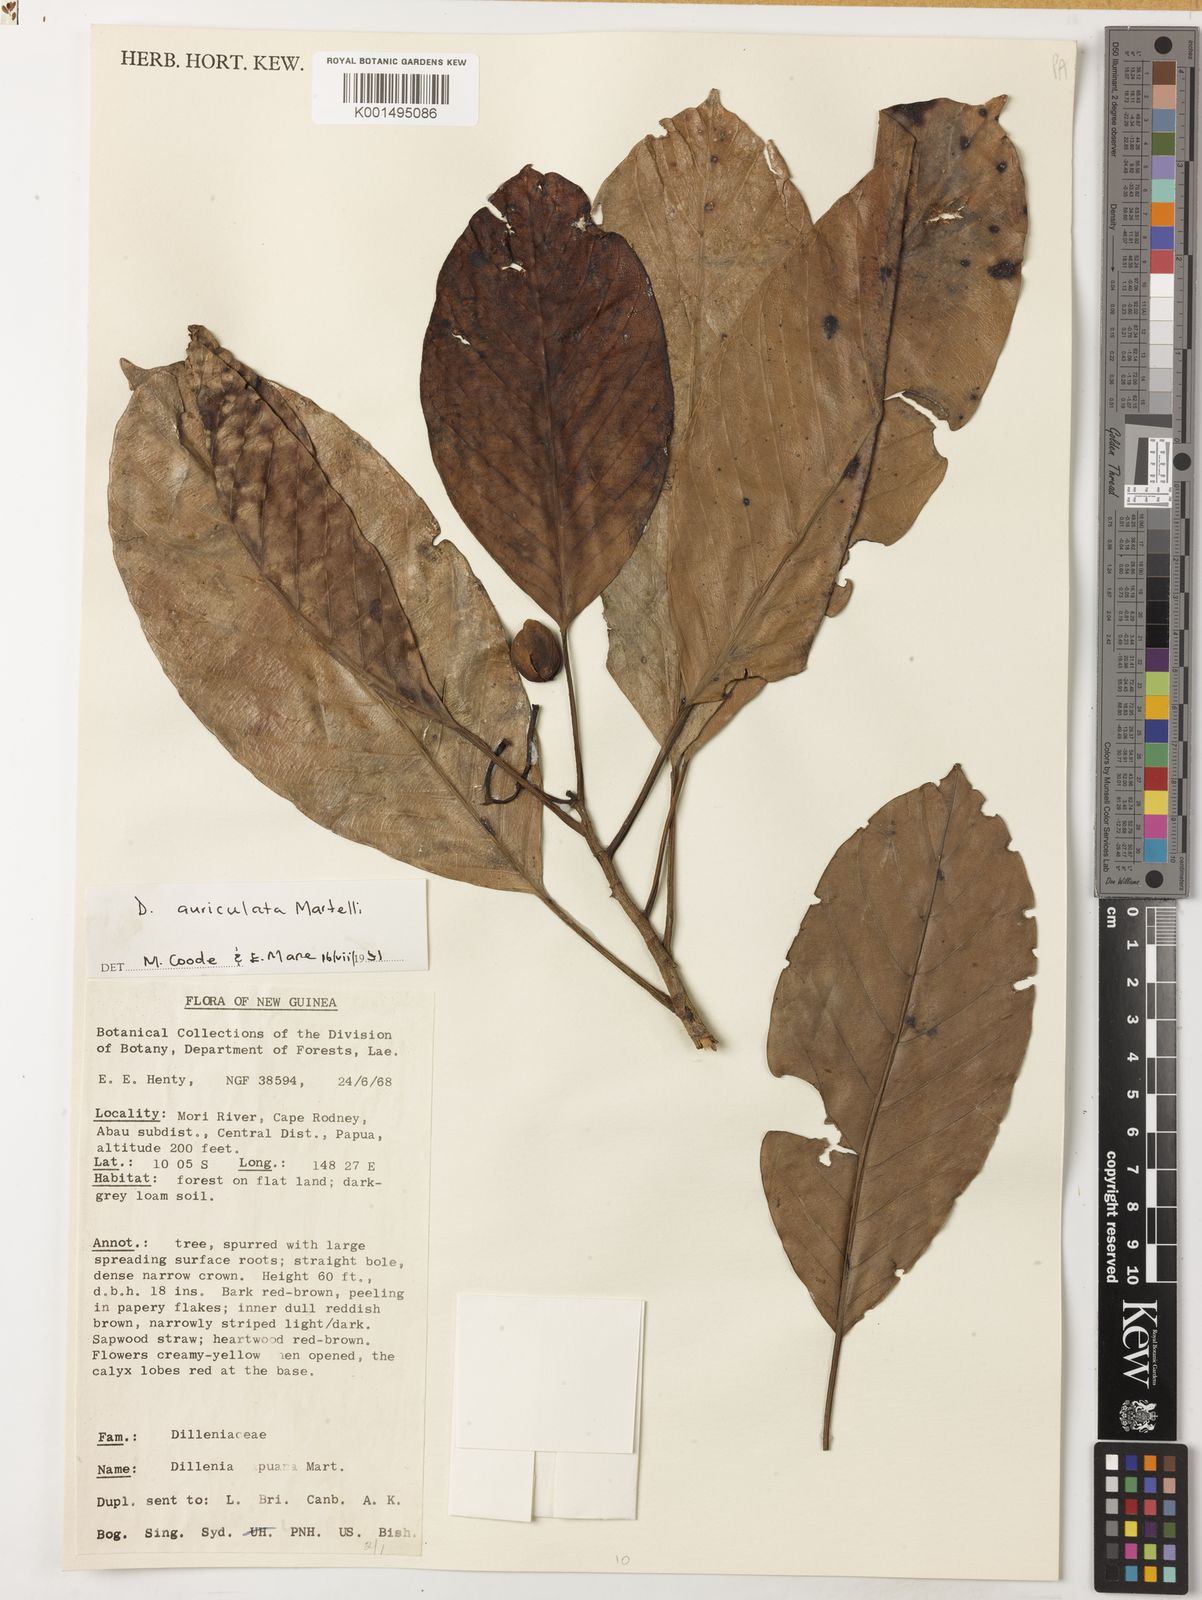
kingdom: Plantae
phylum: Tracheophyta
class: Magnoliopsida
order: Dilleniales
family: Dilleniaceae
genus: Dillenia
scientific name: Dillenia auriculata
